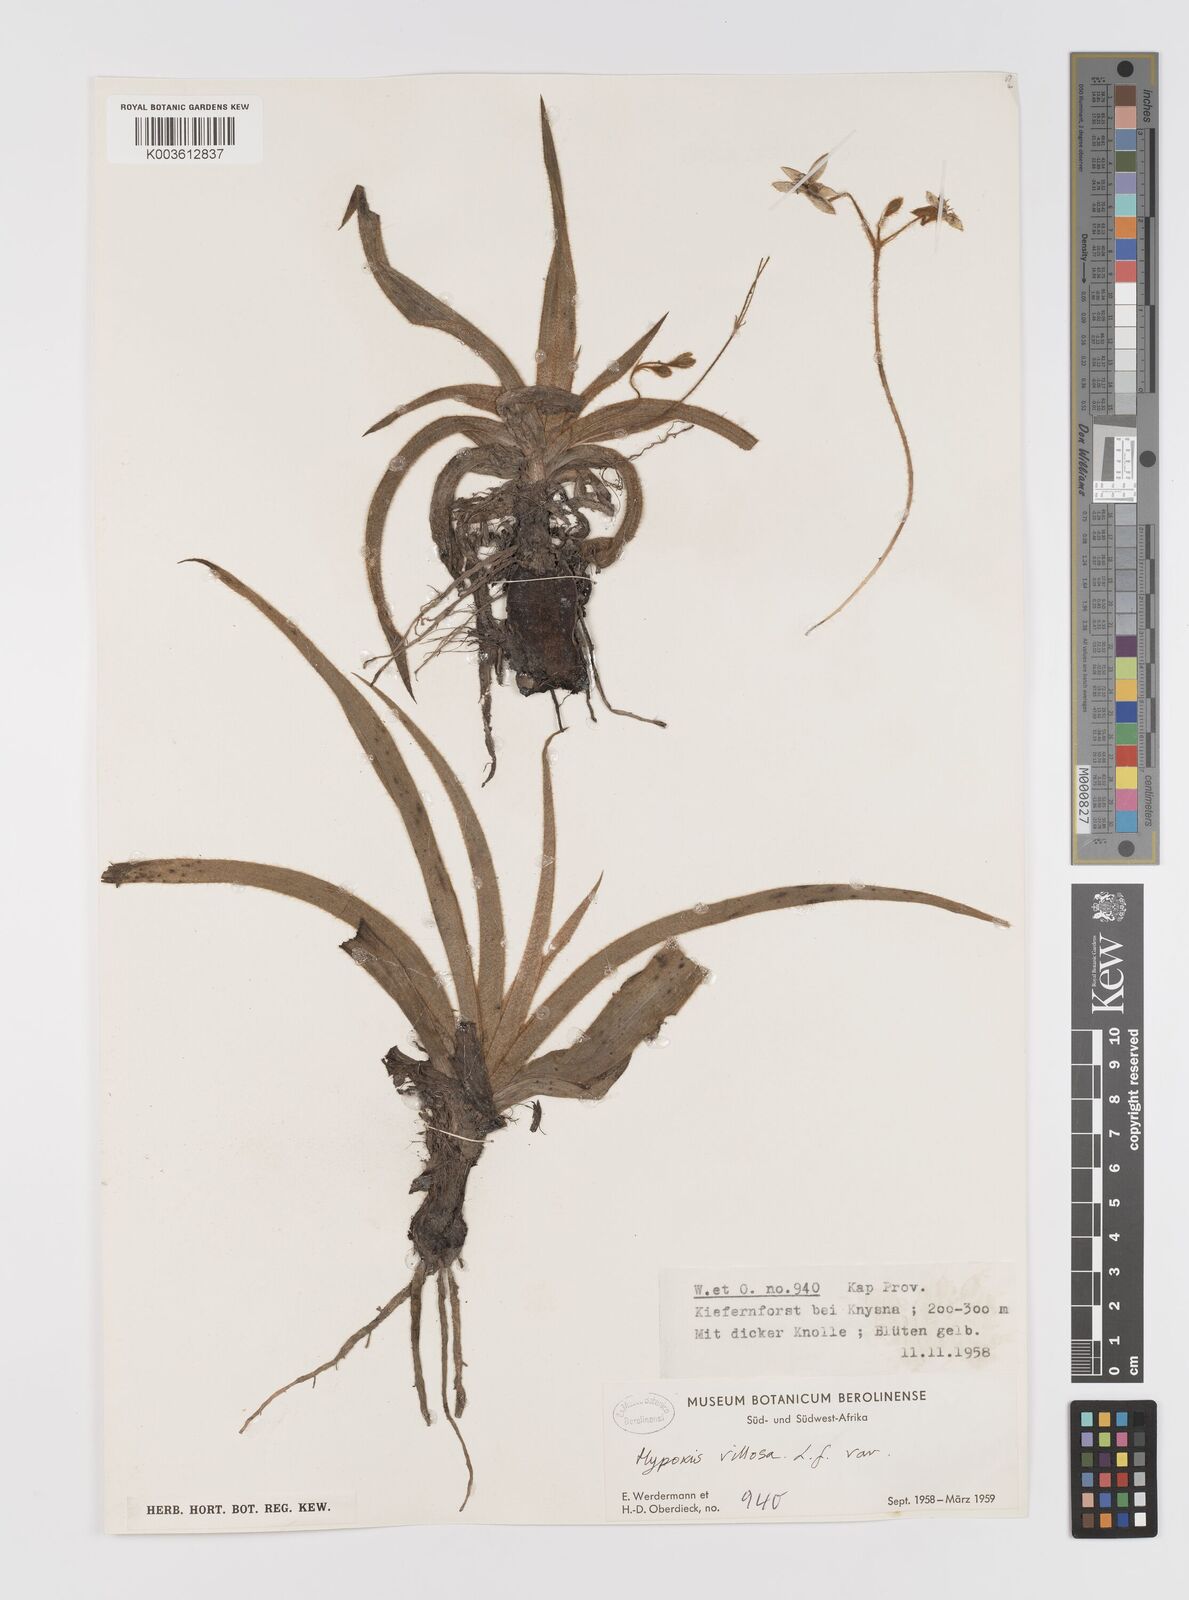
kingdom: Plantae
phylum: Tracheophyta
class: Liliopsida
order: Asparagales
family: Hypoxidaceae
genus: Hypoxis
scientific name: Hypoxis villosa
